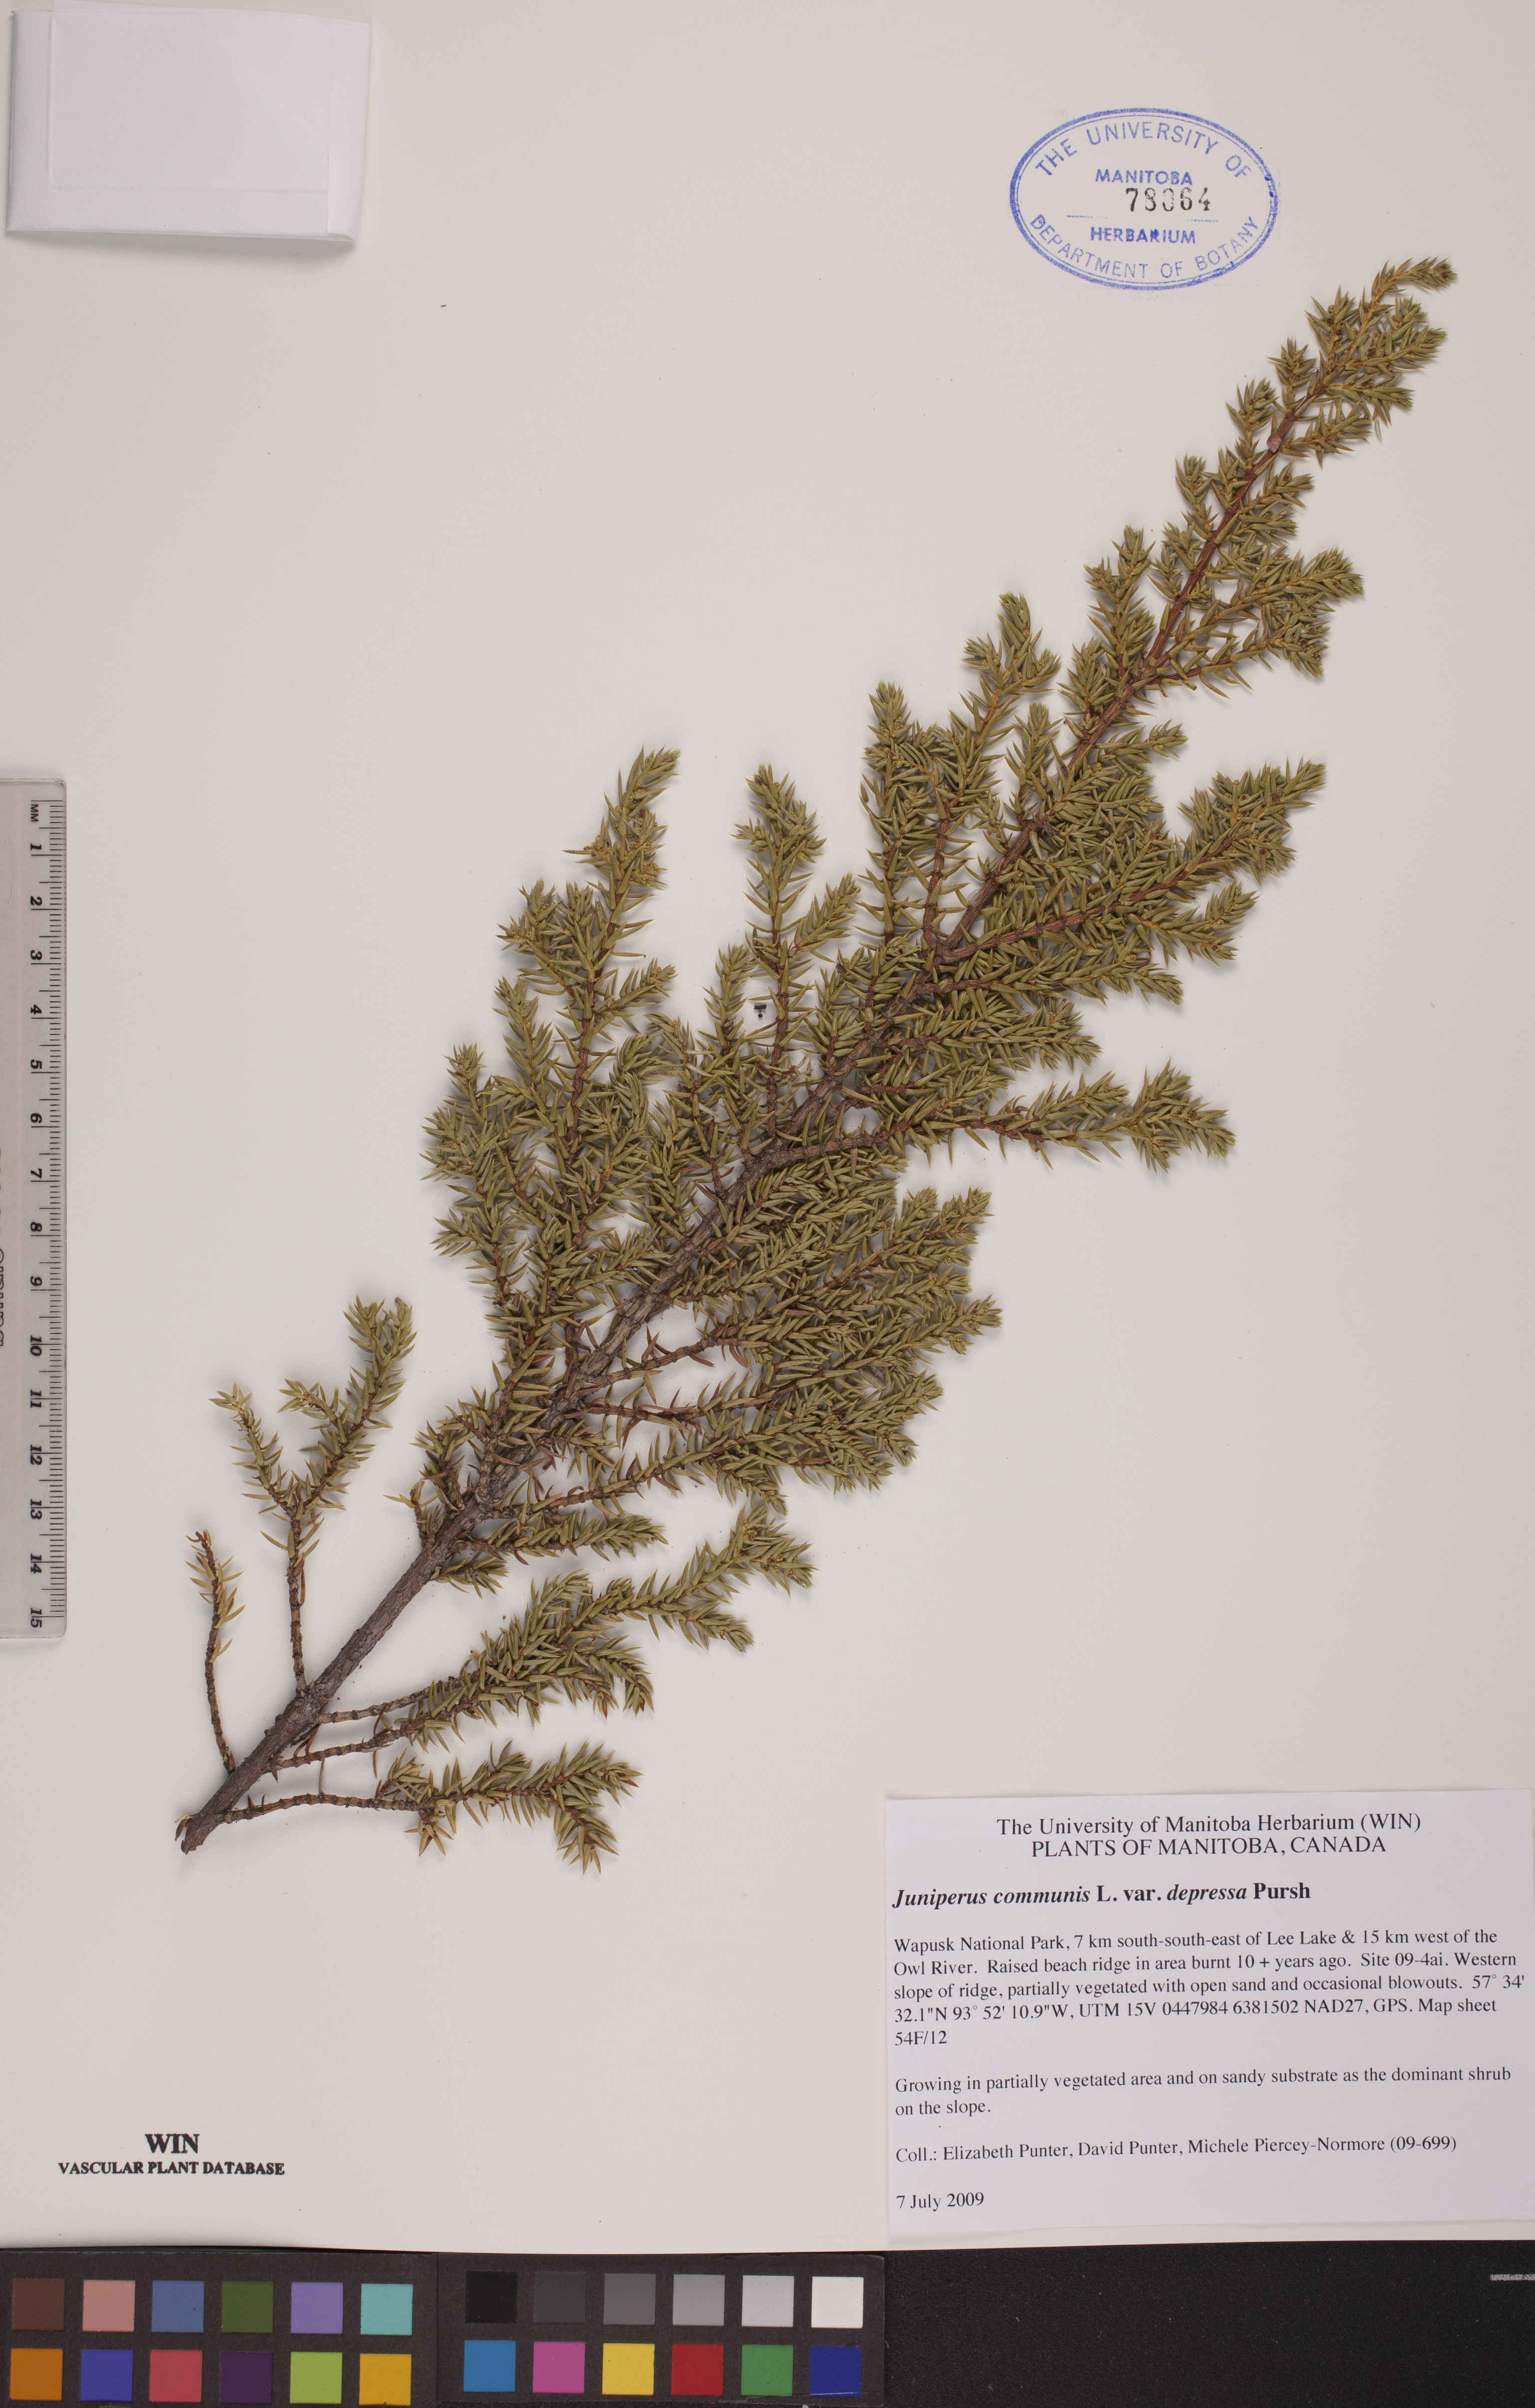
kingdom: Plantae
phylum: Tracheophyta
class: Pinopsida
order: Pinales
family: Cupressaceae
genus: Juniperus
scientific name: Juniperus communis
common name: Common juniper
